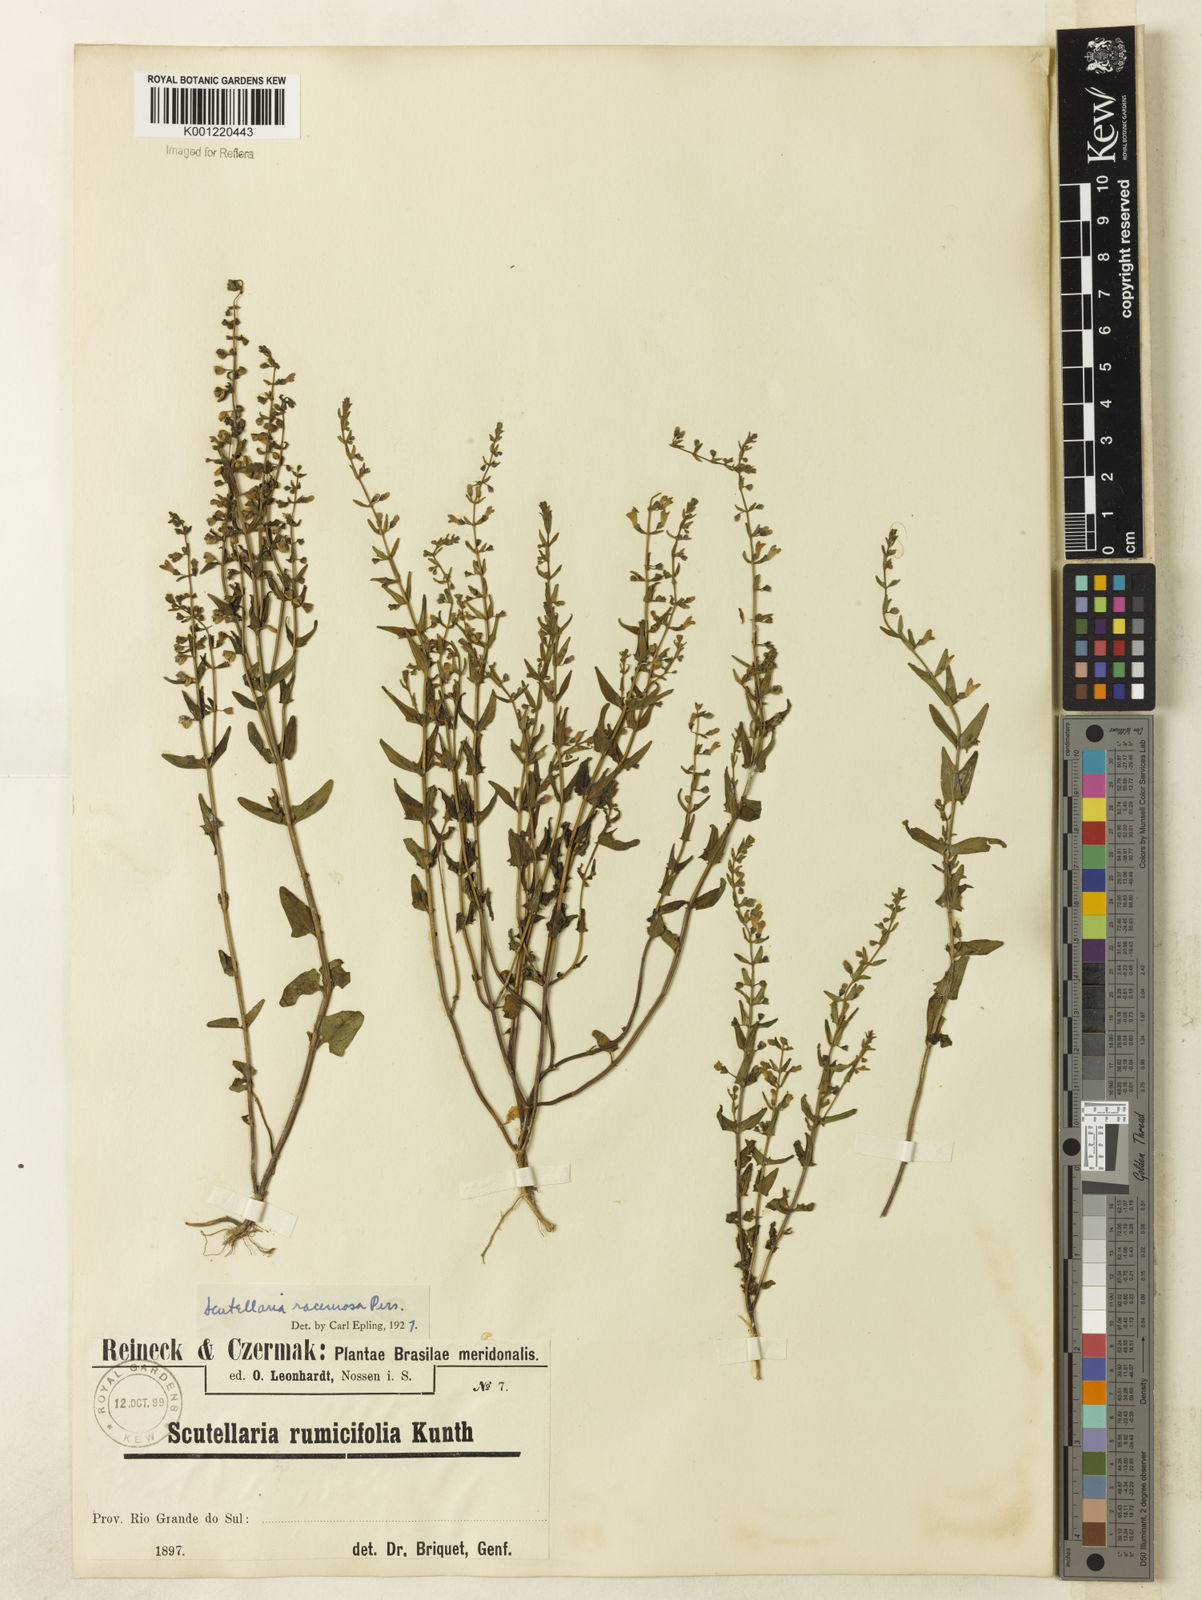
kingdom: Plantae
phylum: Tracheophyta
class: Magnoliopsida
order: Lamiales
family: Lamiaceae
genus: Scutellaria
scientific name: Scutellaria racemosa
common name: South american skullcap
